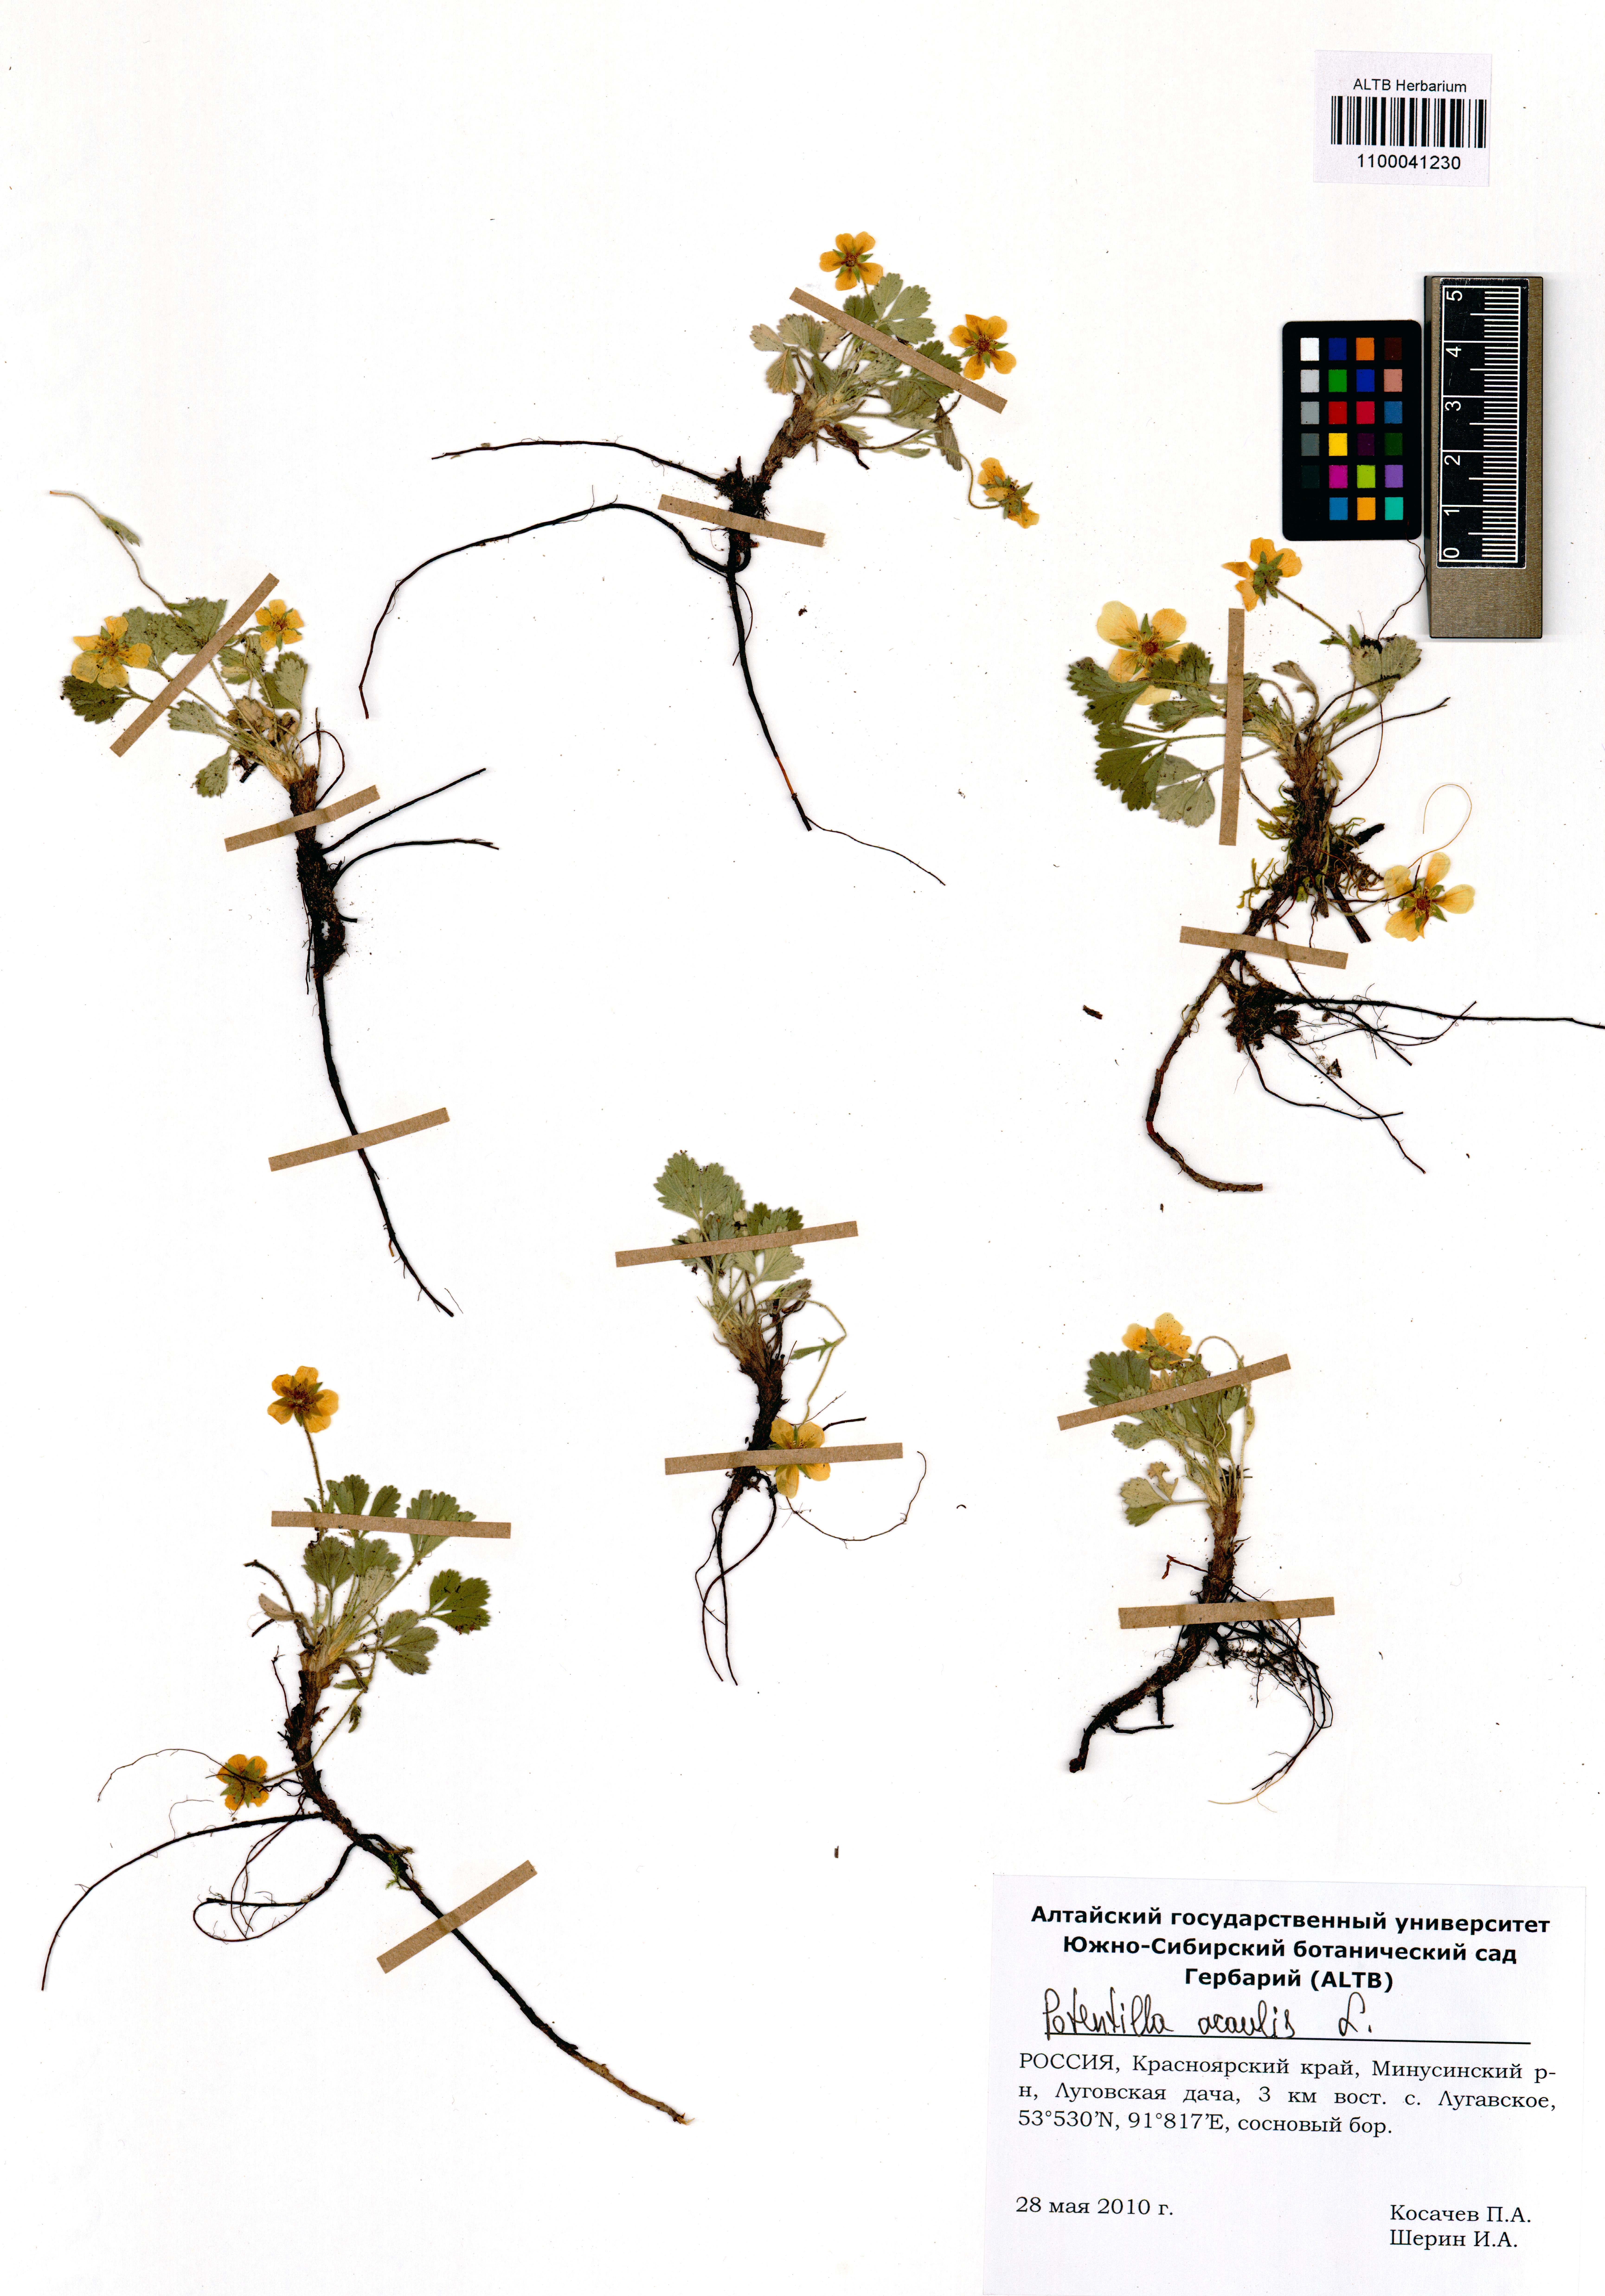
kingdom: Plantae
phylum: Tracheophyta
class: Magnoliopsida
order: Rosales
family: Rosaceae
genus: Potentilla
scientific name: Potentilla acaulis
